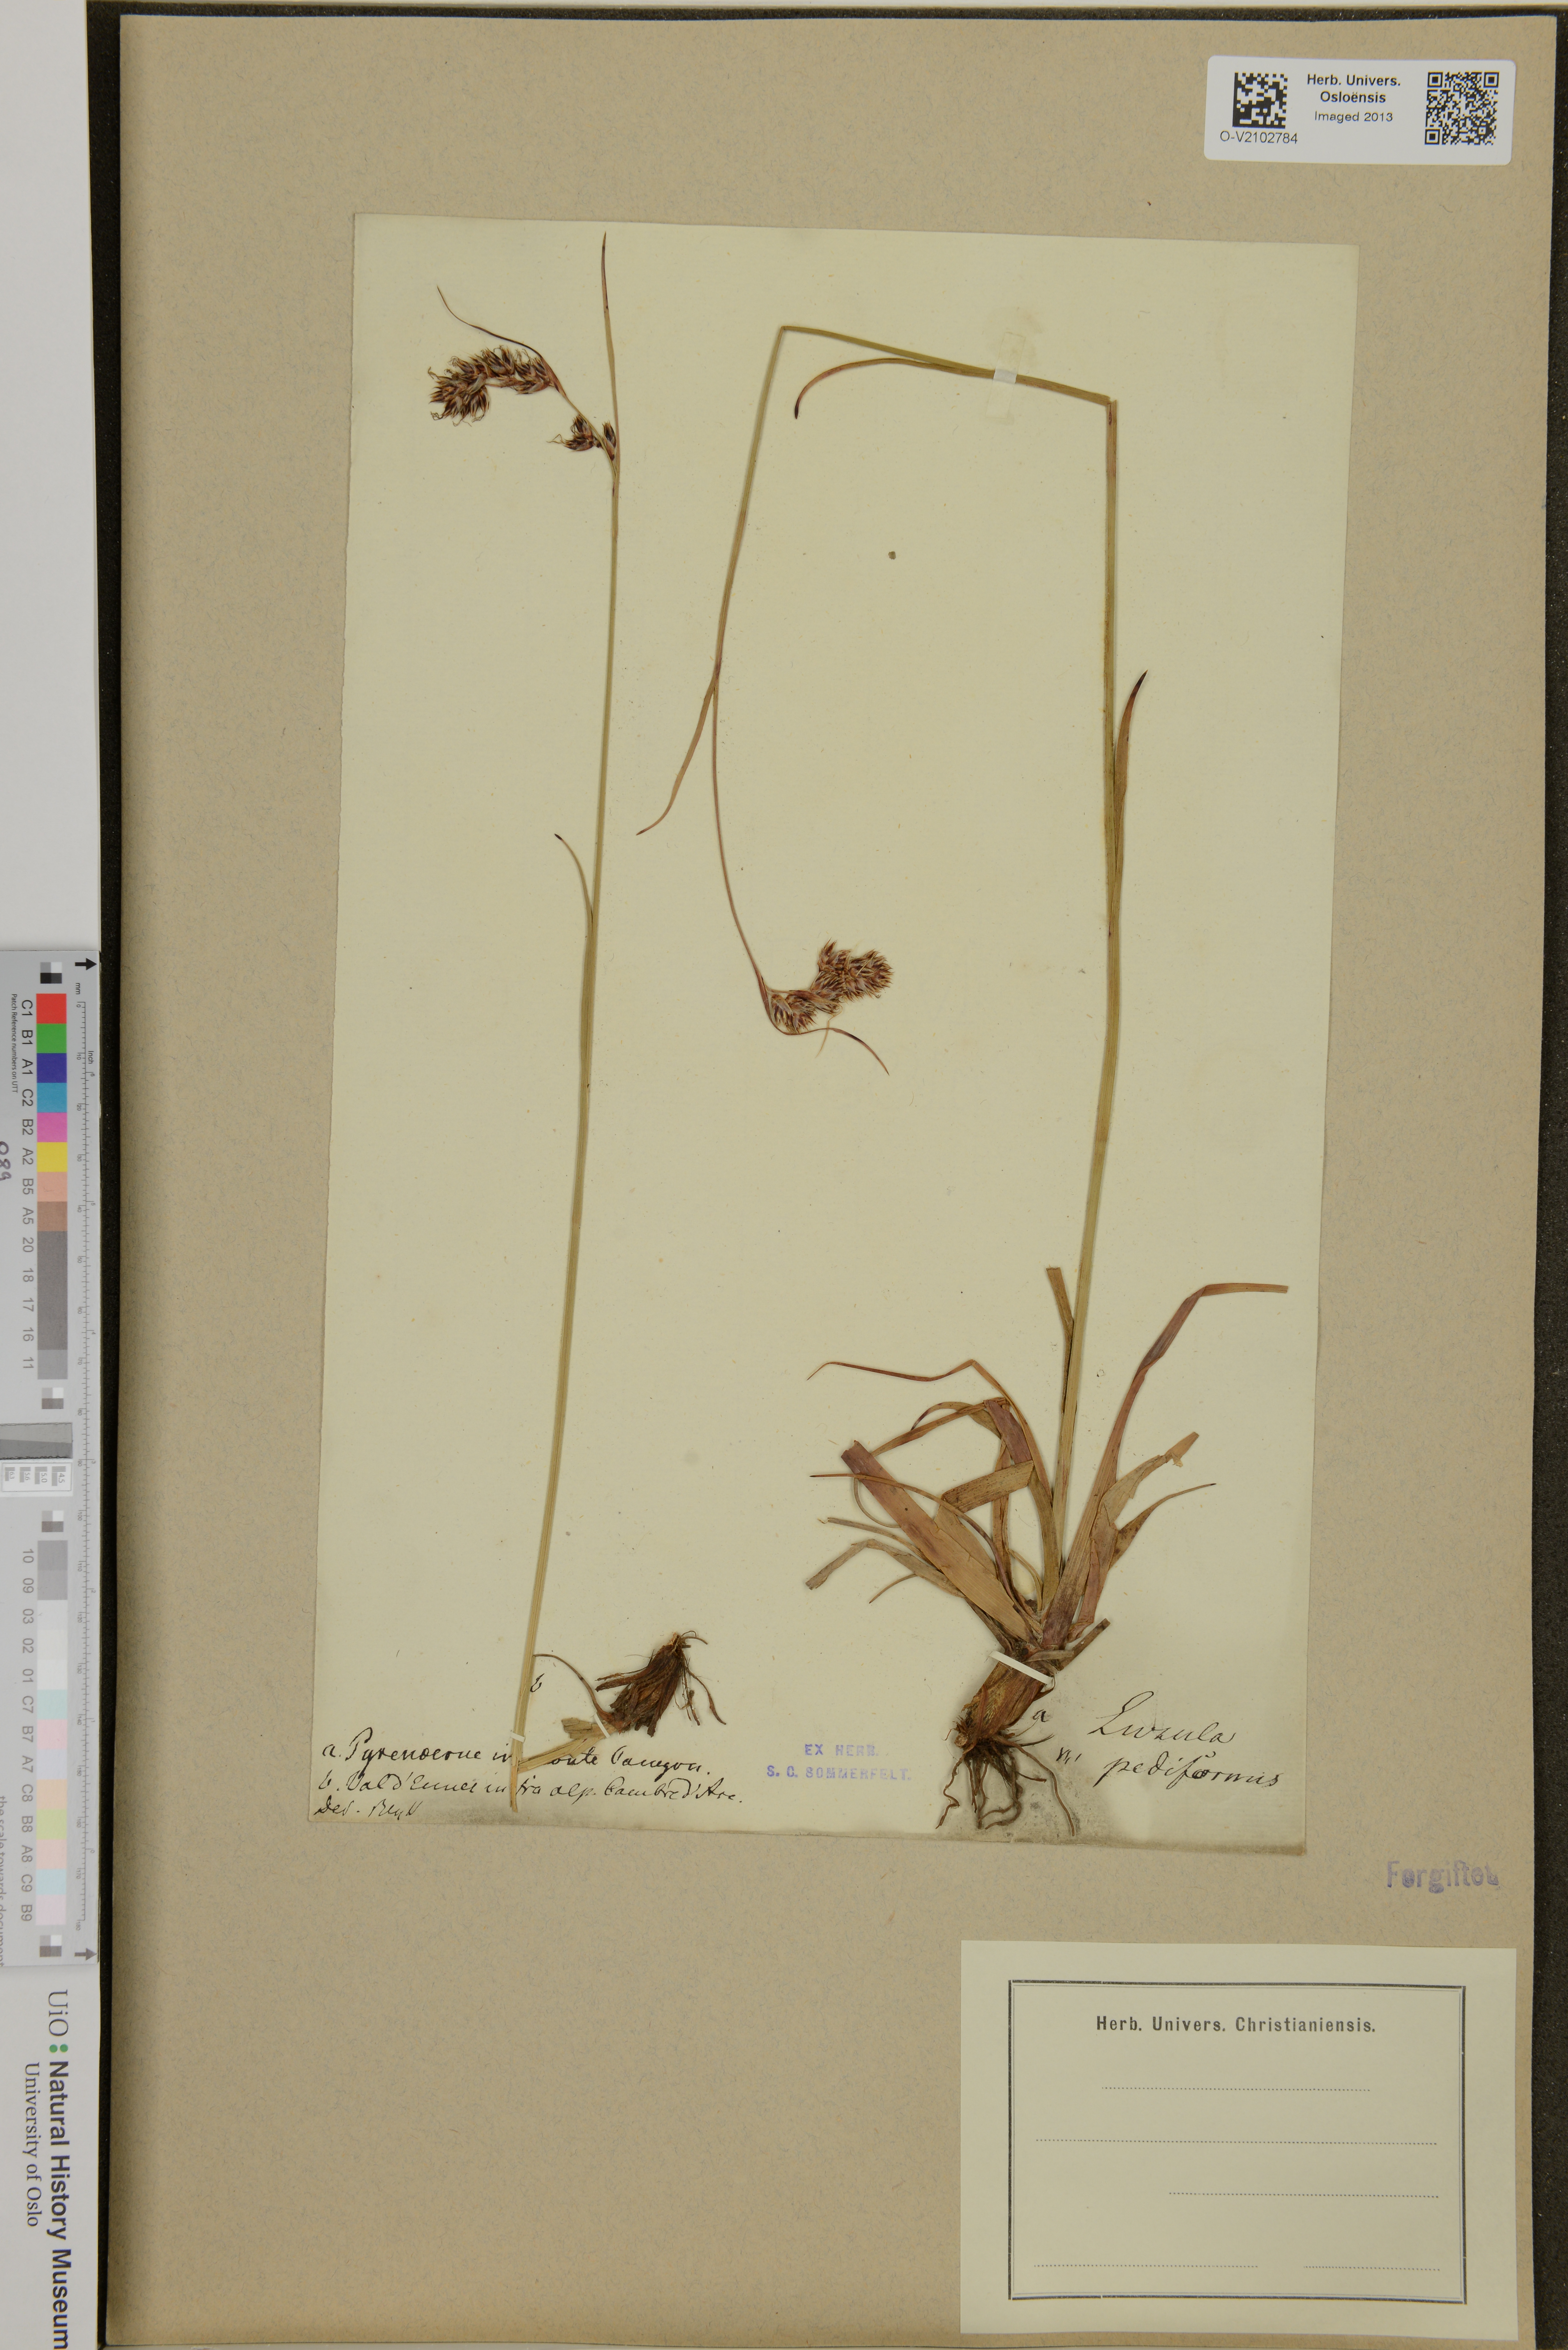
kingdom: Plantae
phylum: Tracheophyta
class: Liliopsida
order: Poales
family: Juncaceae
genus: Luzula
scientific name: Luzula pediformis
